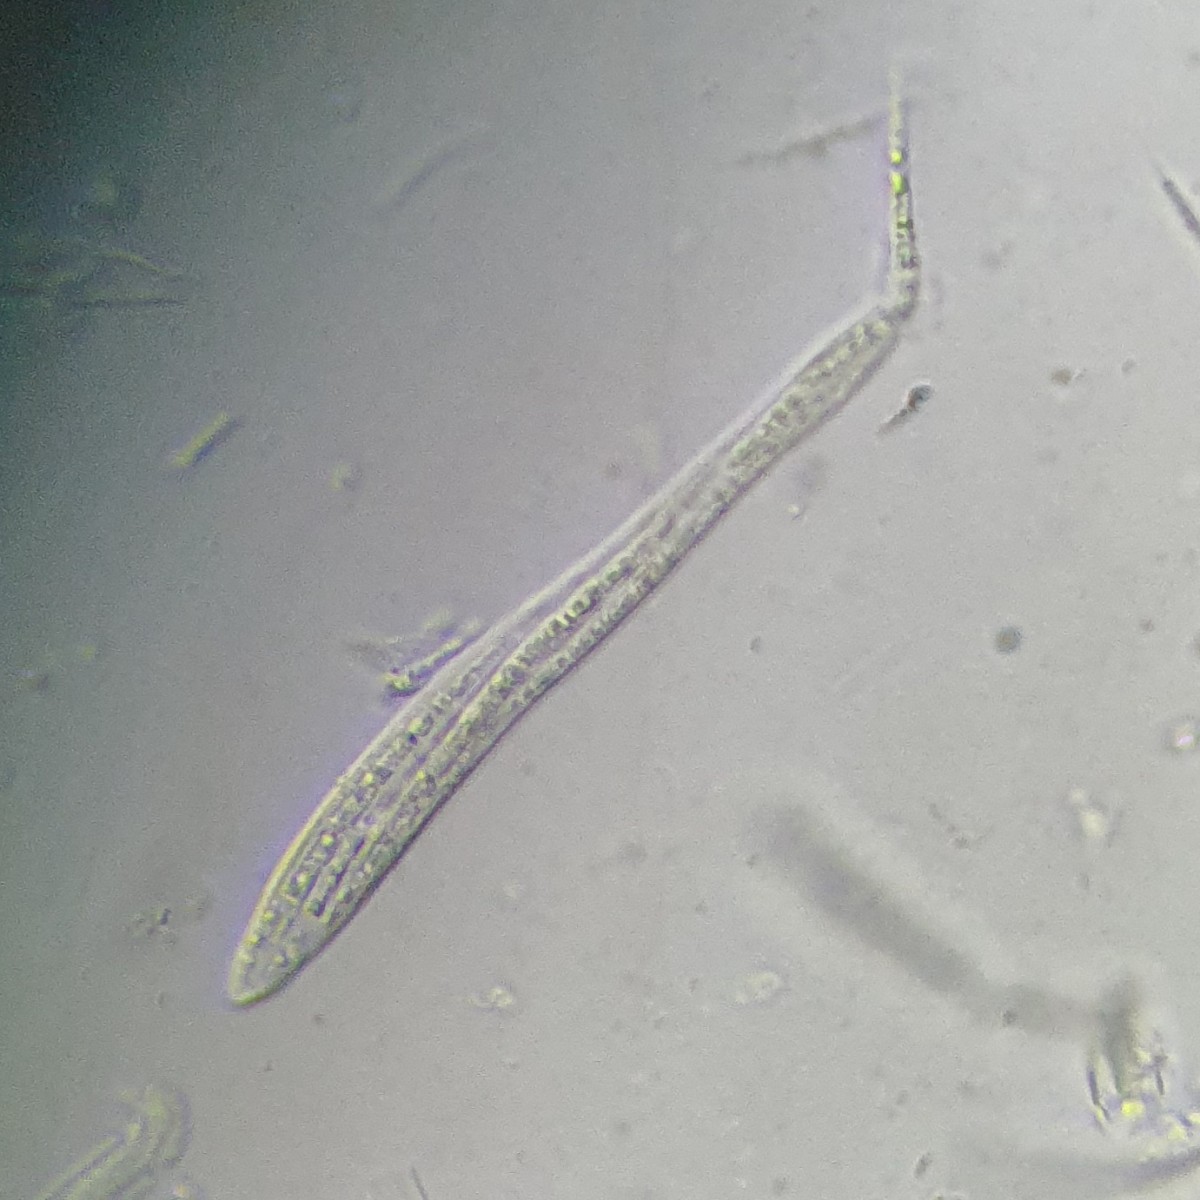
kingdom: Fungi
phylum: Ascomycota
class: Leotiomycetes
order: Rhytismatales
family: Rhytismataceae
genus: Lophodermium
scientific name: Lophodermium typhinum
